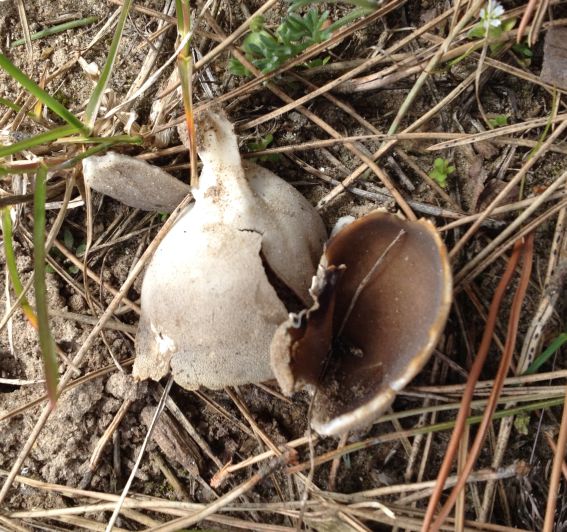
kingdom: Fungi
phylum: Ascomycota
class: Pezizomycetes
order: Pezizales
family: Helvellaceae
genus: Dissingia
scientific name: Dissingia leucomelaena
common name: sorthvid foldhat
